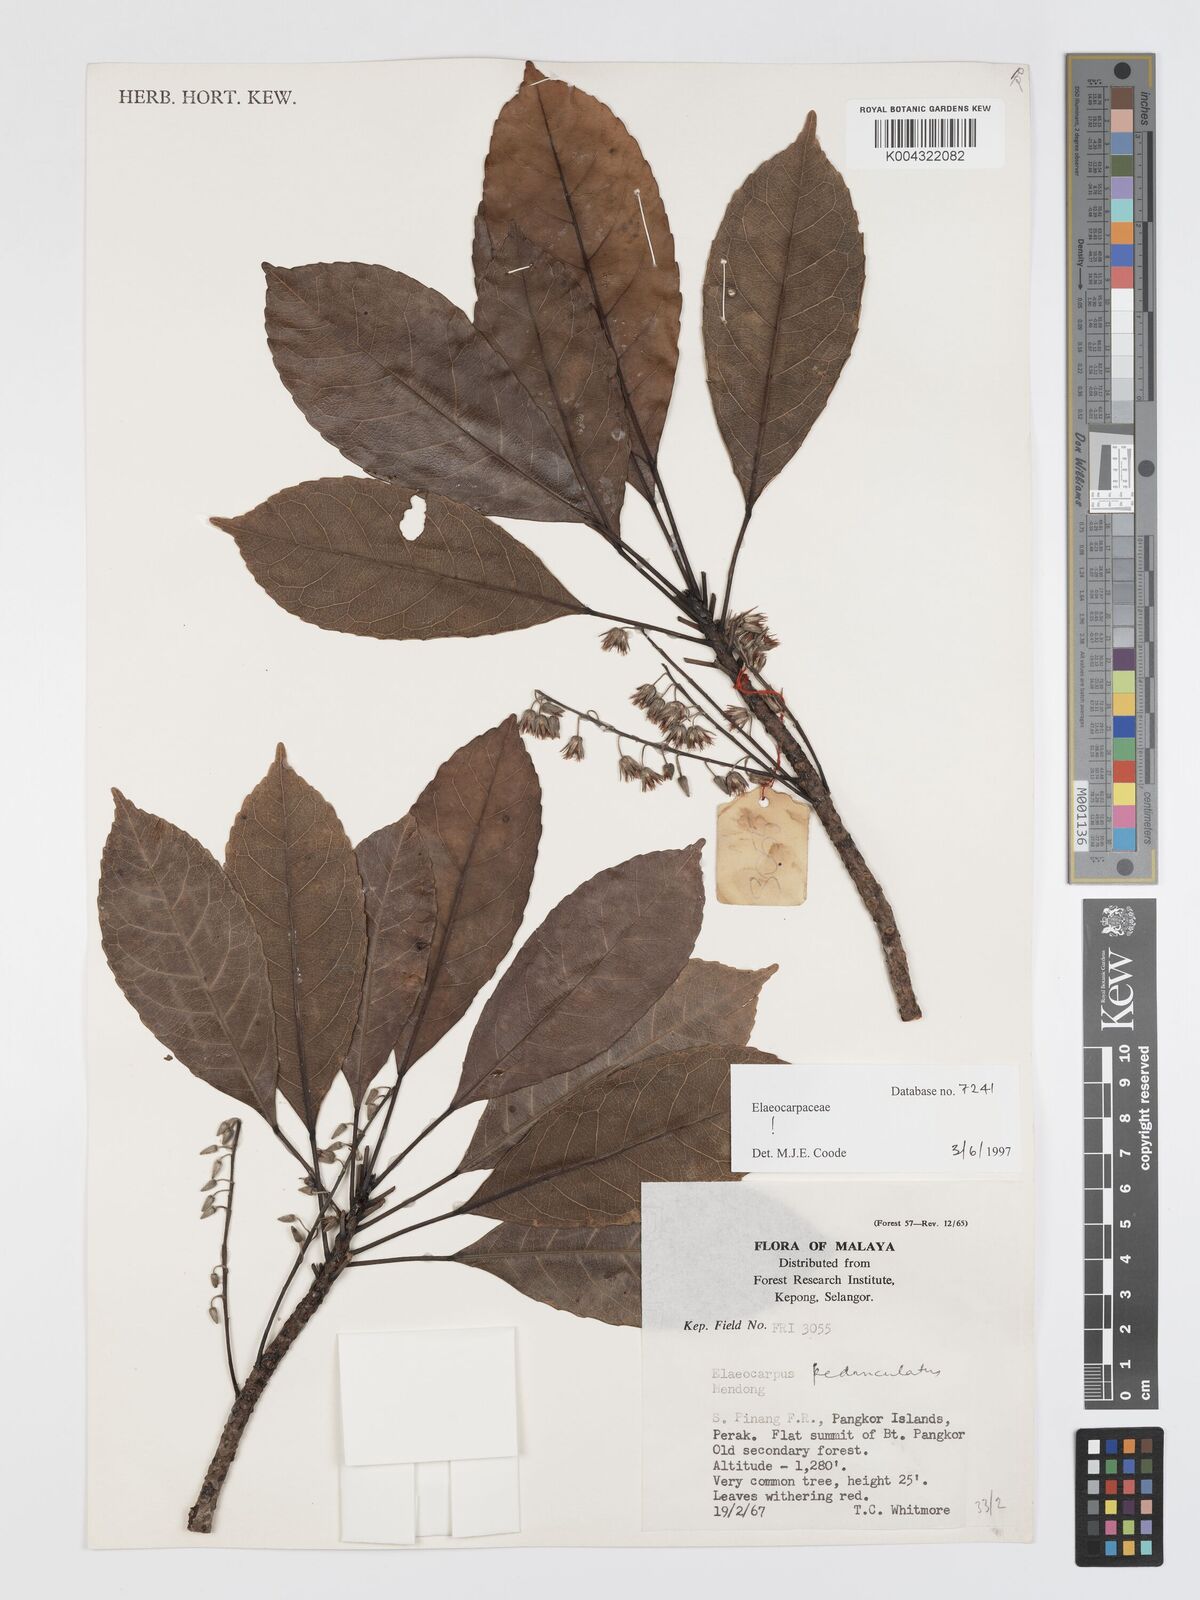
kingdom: Plantae
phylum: Tracheophyta
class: Magnoliopsida
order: Oxalidales
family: Elaeocarpaceae
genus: Elaeocarpus
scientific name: Elaeocarpus pedunculatus
